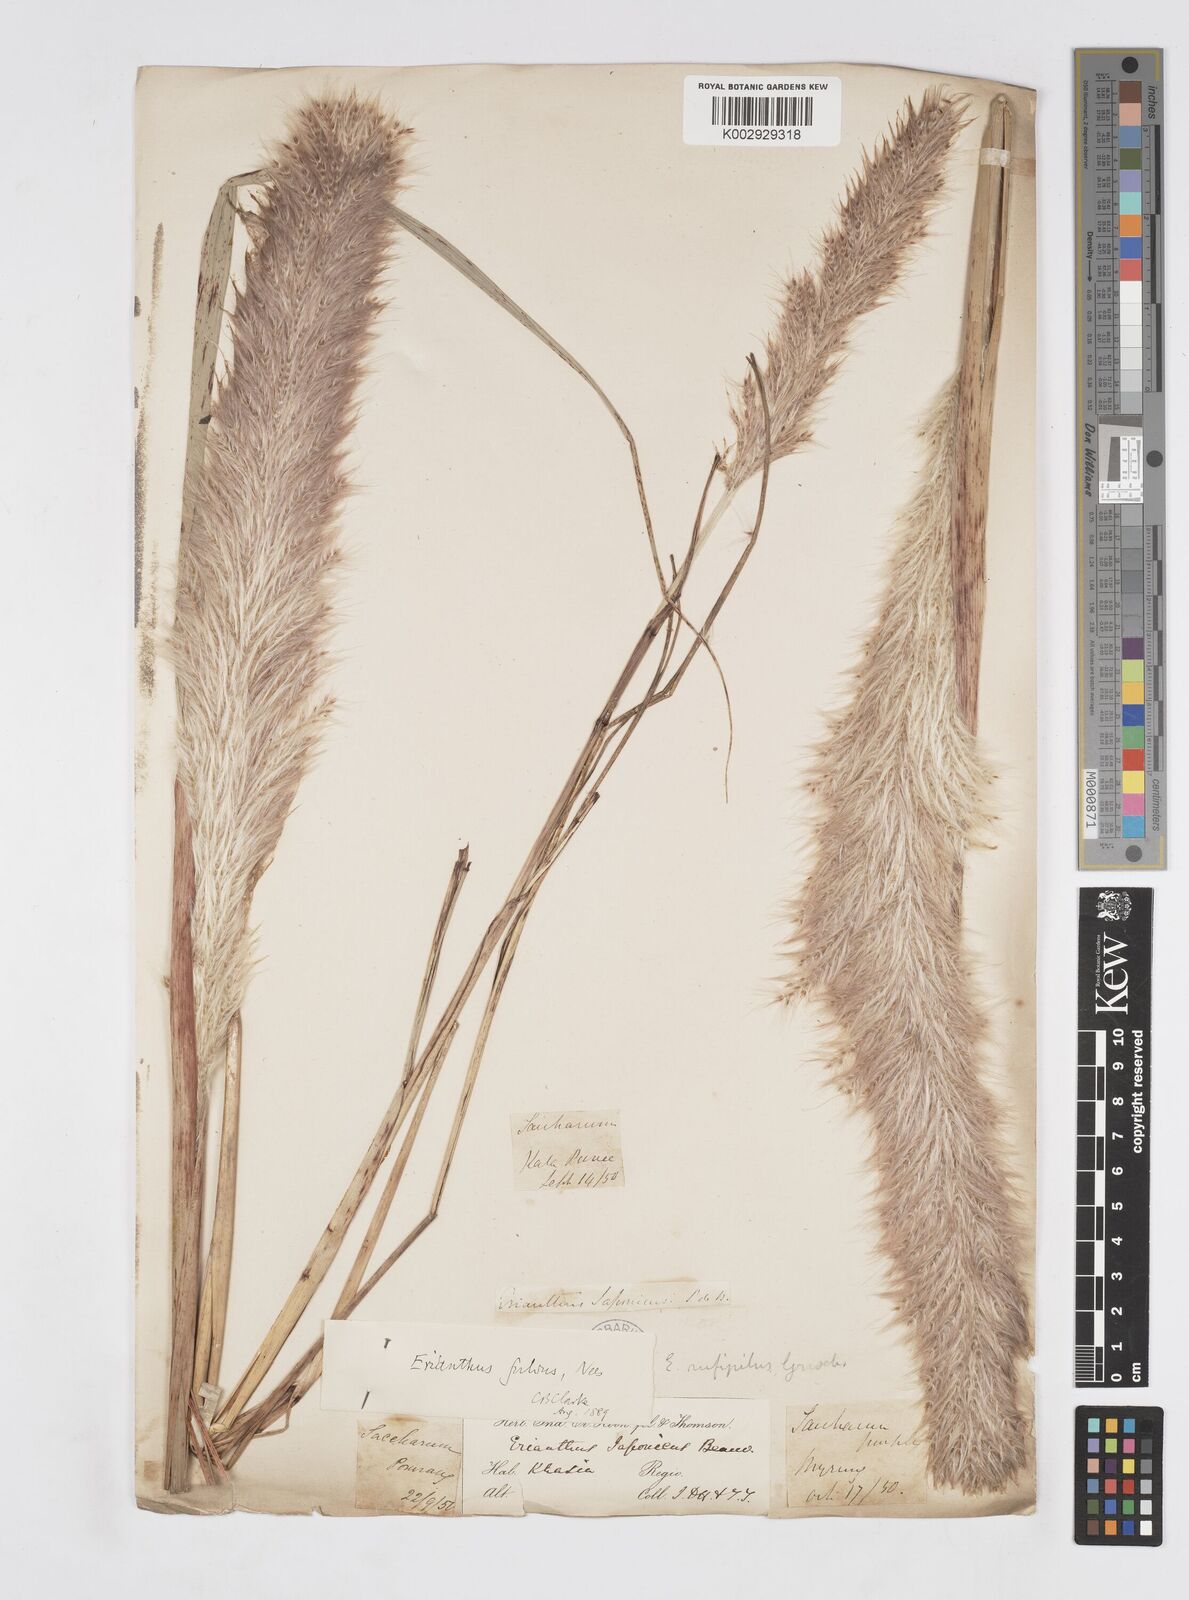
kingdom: Plantae
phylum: Tracheophyta
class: Liliopsida
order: Poales
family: Poaceae
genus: Tripidium
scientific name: Tripidium rufipilum
